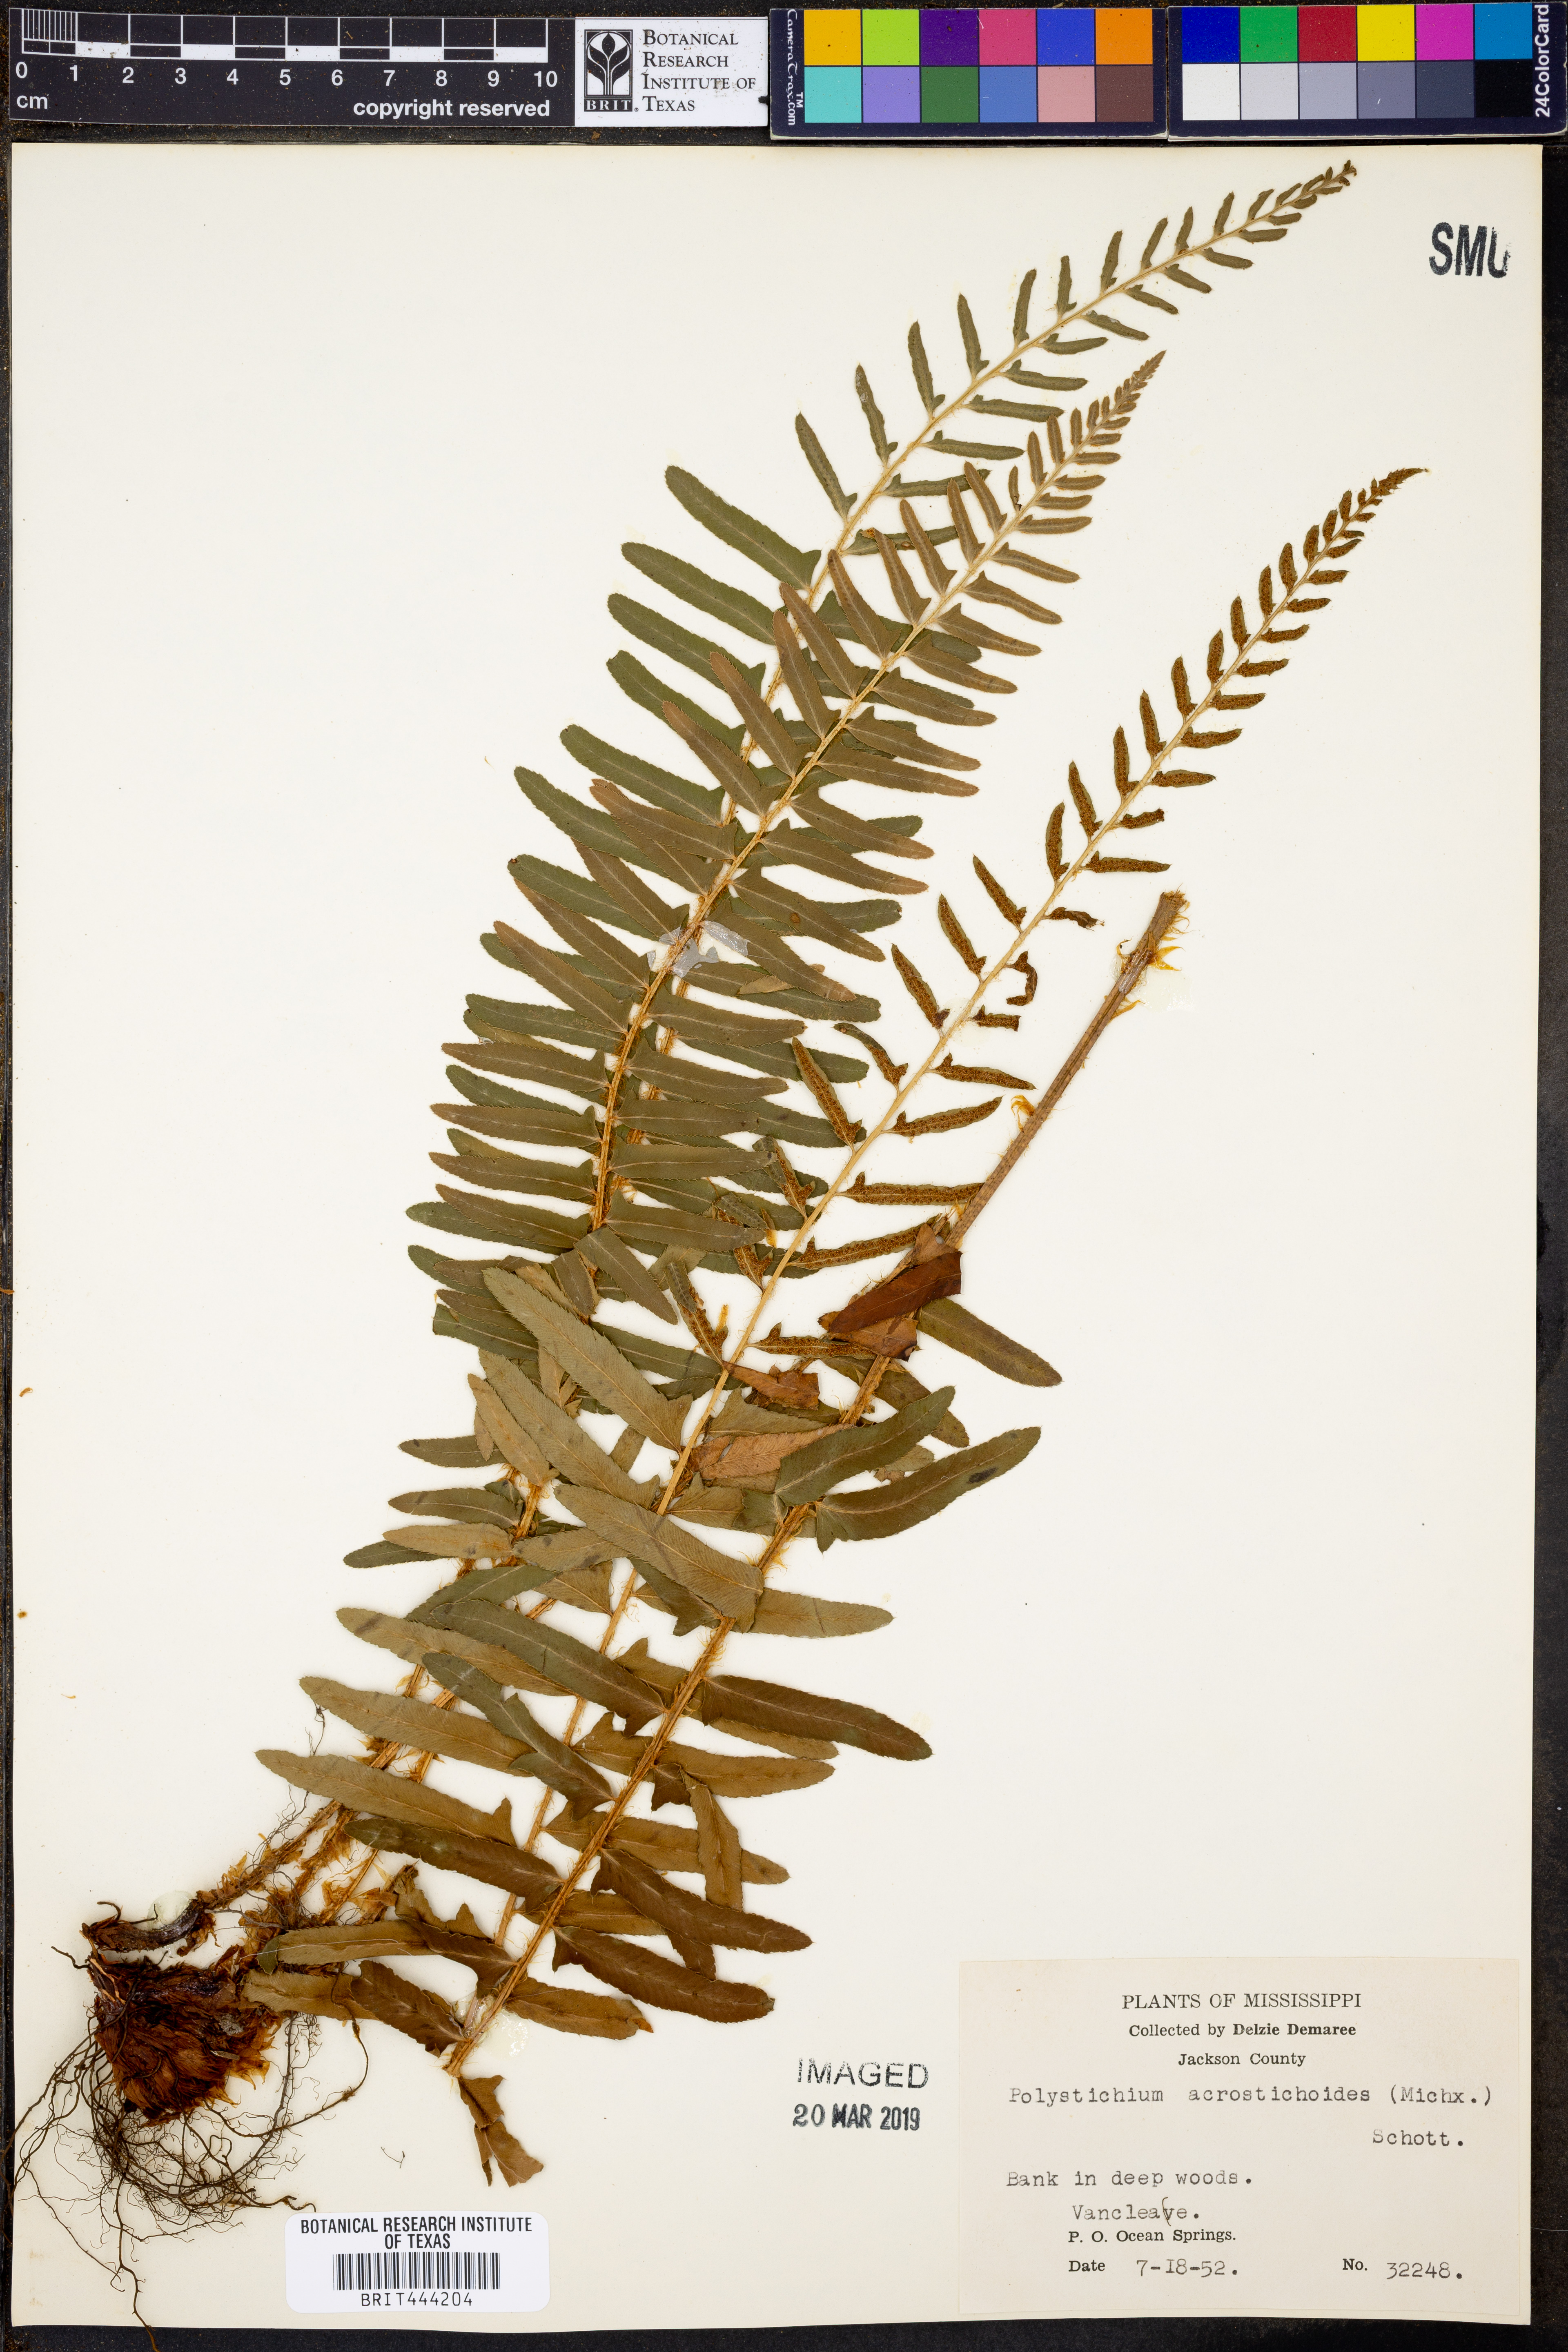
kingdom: Plantae
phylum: Tracheophyta
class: Polypodiopsida
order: Polypodiales
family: Dryopteridaceae
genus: Polystichum
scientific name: Polystichum acrostichoides
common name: Christmas fern
